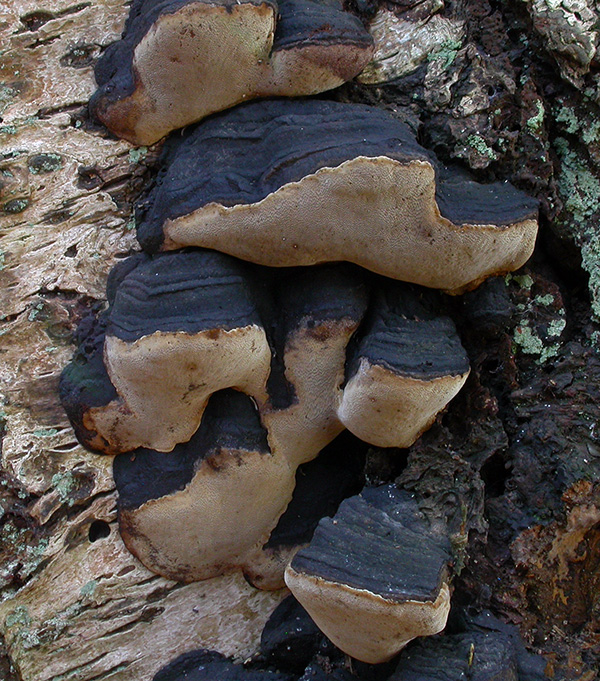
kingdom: Fungi
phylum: Basidiomycota
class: Agaricomycetes
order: Hymenochaetales
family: Hymenochaetaceae
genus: Phellinus
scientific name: Phellinus lundellii
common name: birke-ildporesvamp
